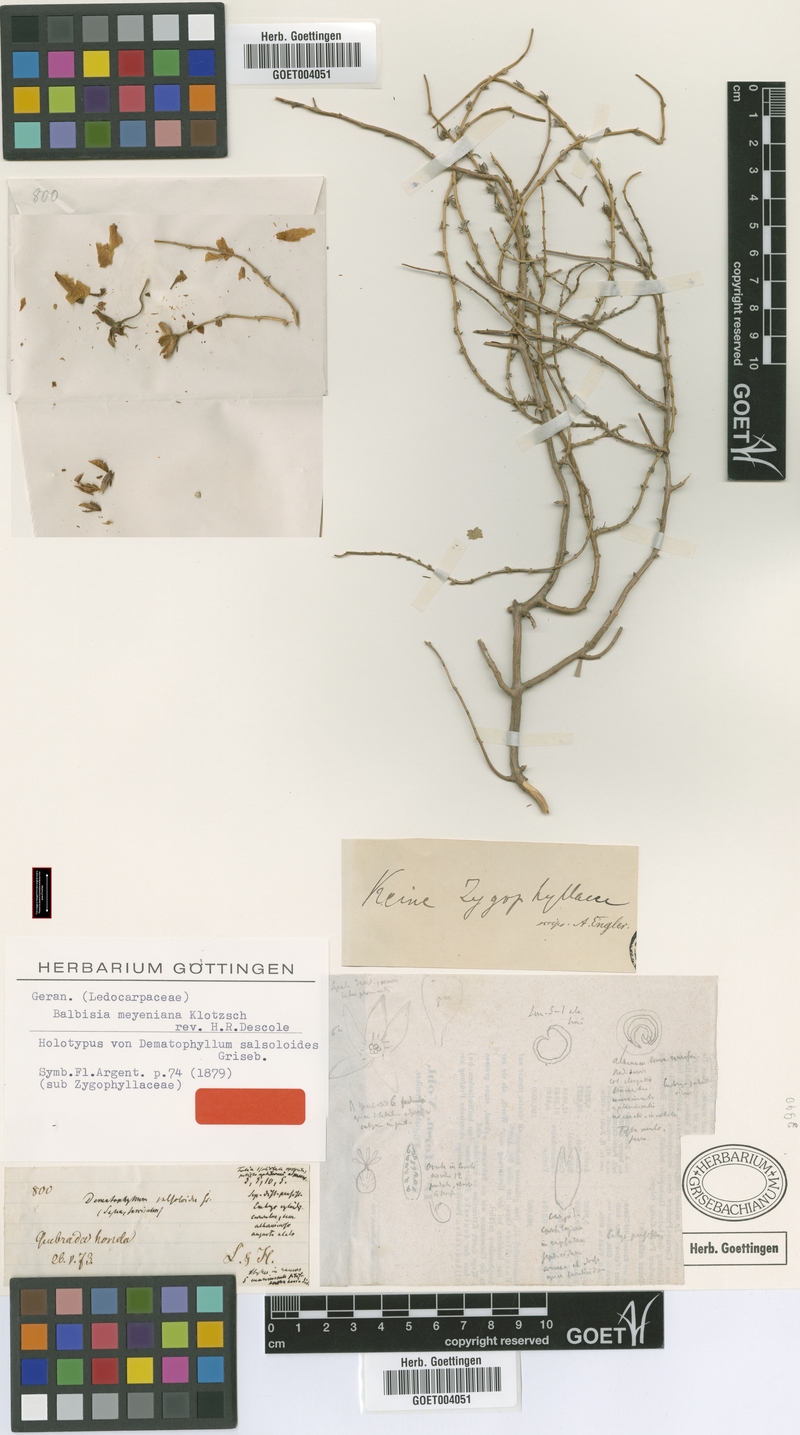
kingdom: Plantae
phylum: Tracheophyta
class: Magnoliopsida
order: Geraniales
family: Vivianiaceae
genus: Balbisia
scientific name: Balbisia meyeniana
